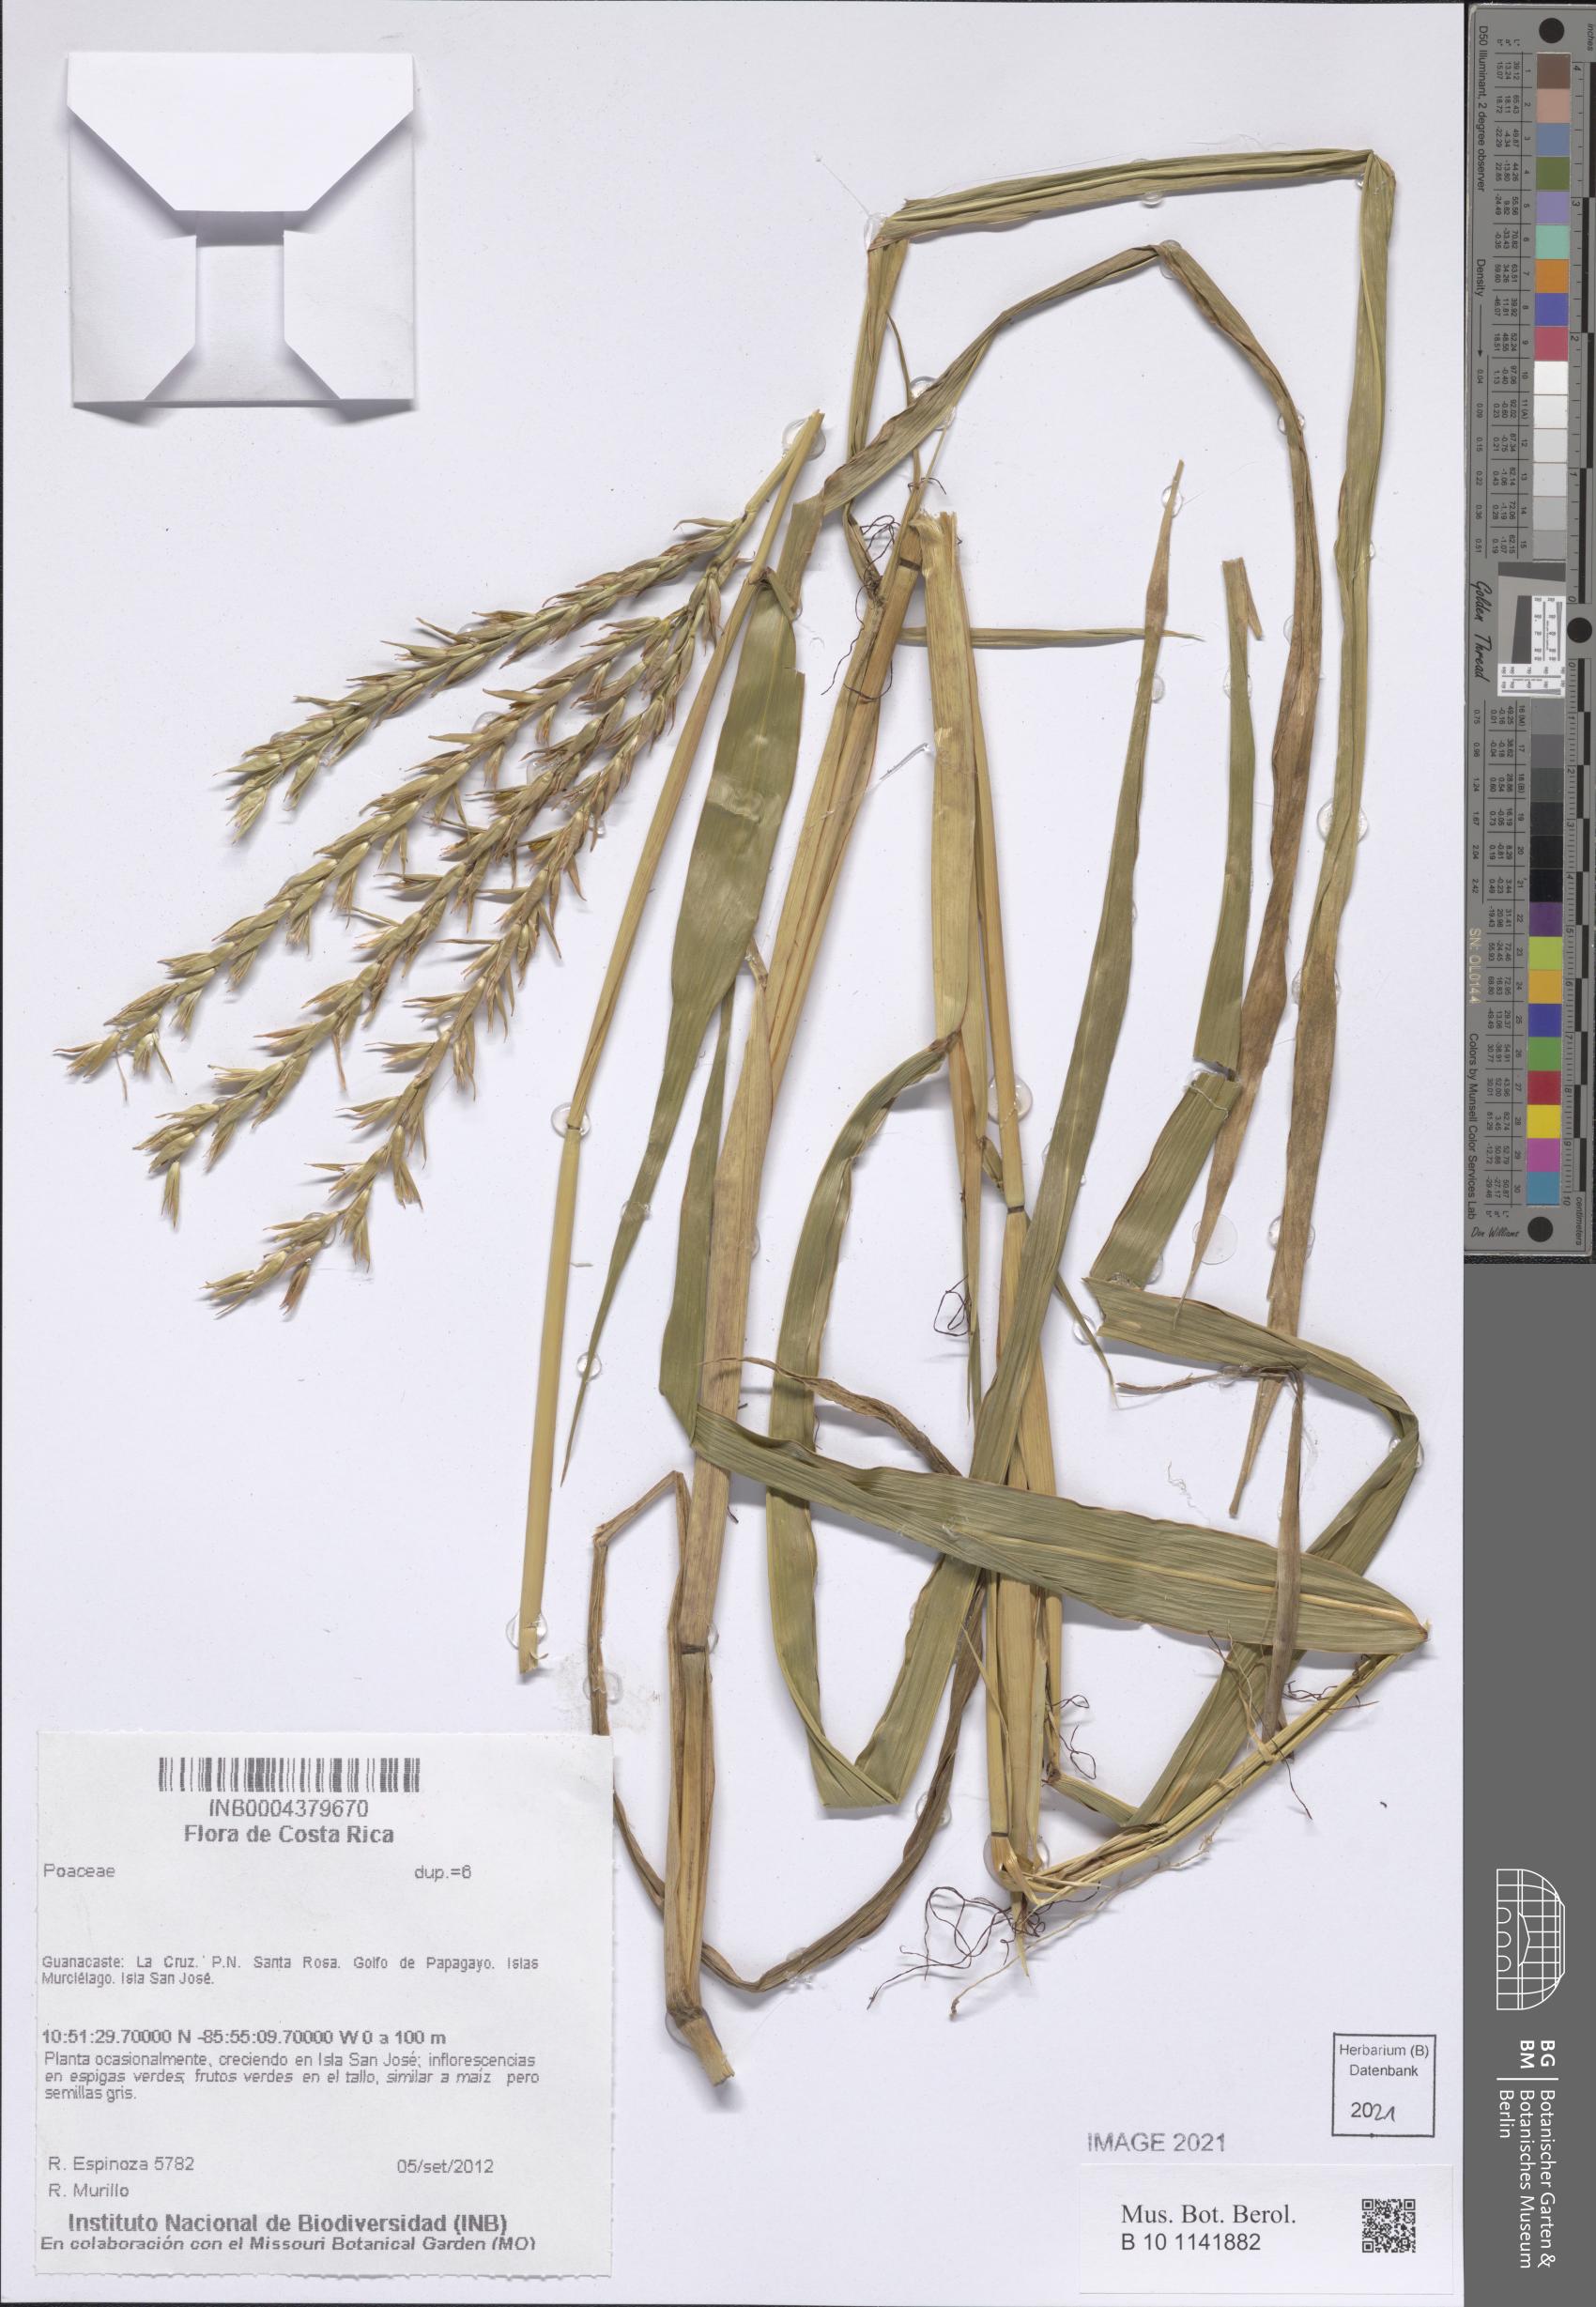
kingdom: Plantae
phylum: Tracheophyta
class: Liliopsida
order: Poales
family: Poaceae
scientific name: Poaceae
